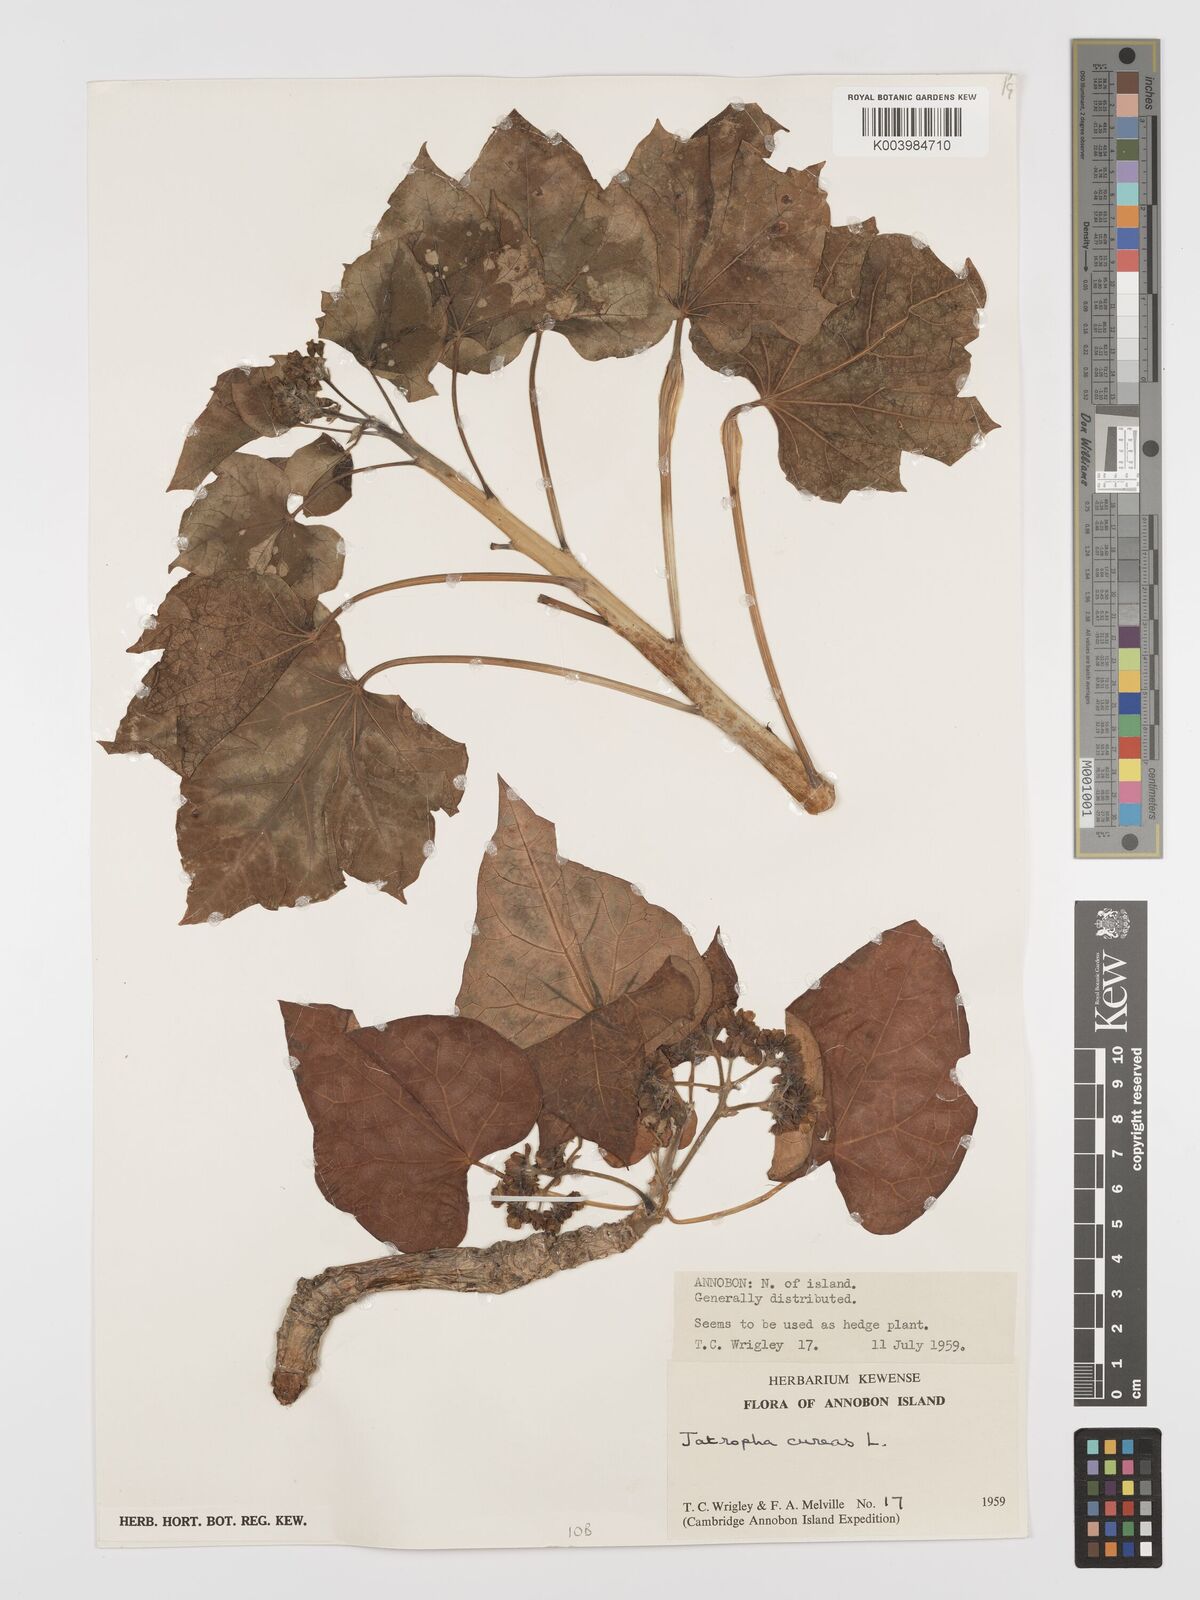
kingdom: Plantae
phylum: Tracheophyta
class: Magnoliopsida
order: Malpighiales
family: Euphorbiaceae
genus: Jatropha
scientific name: Jatropha curcas
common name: Barbados nut
